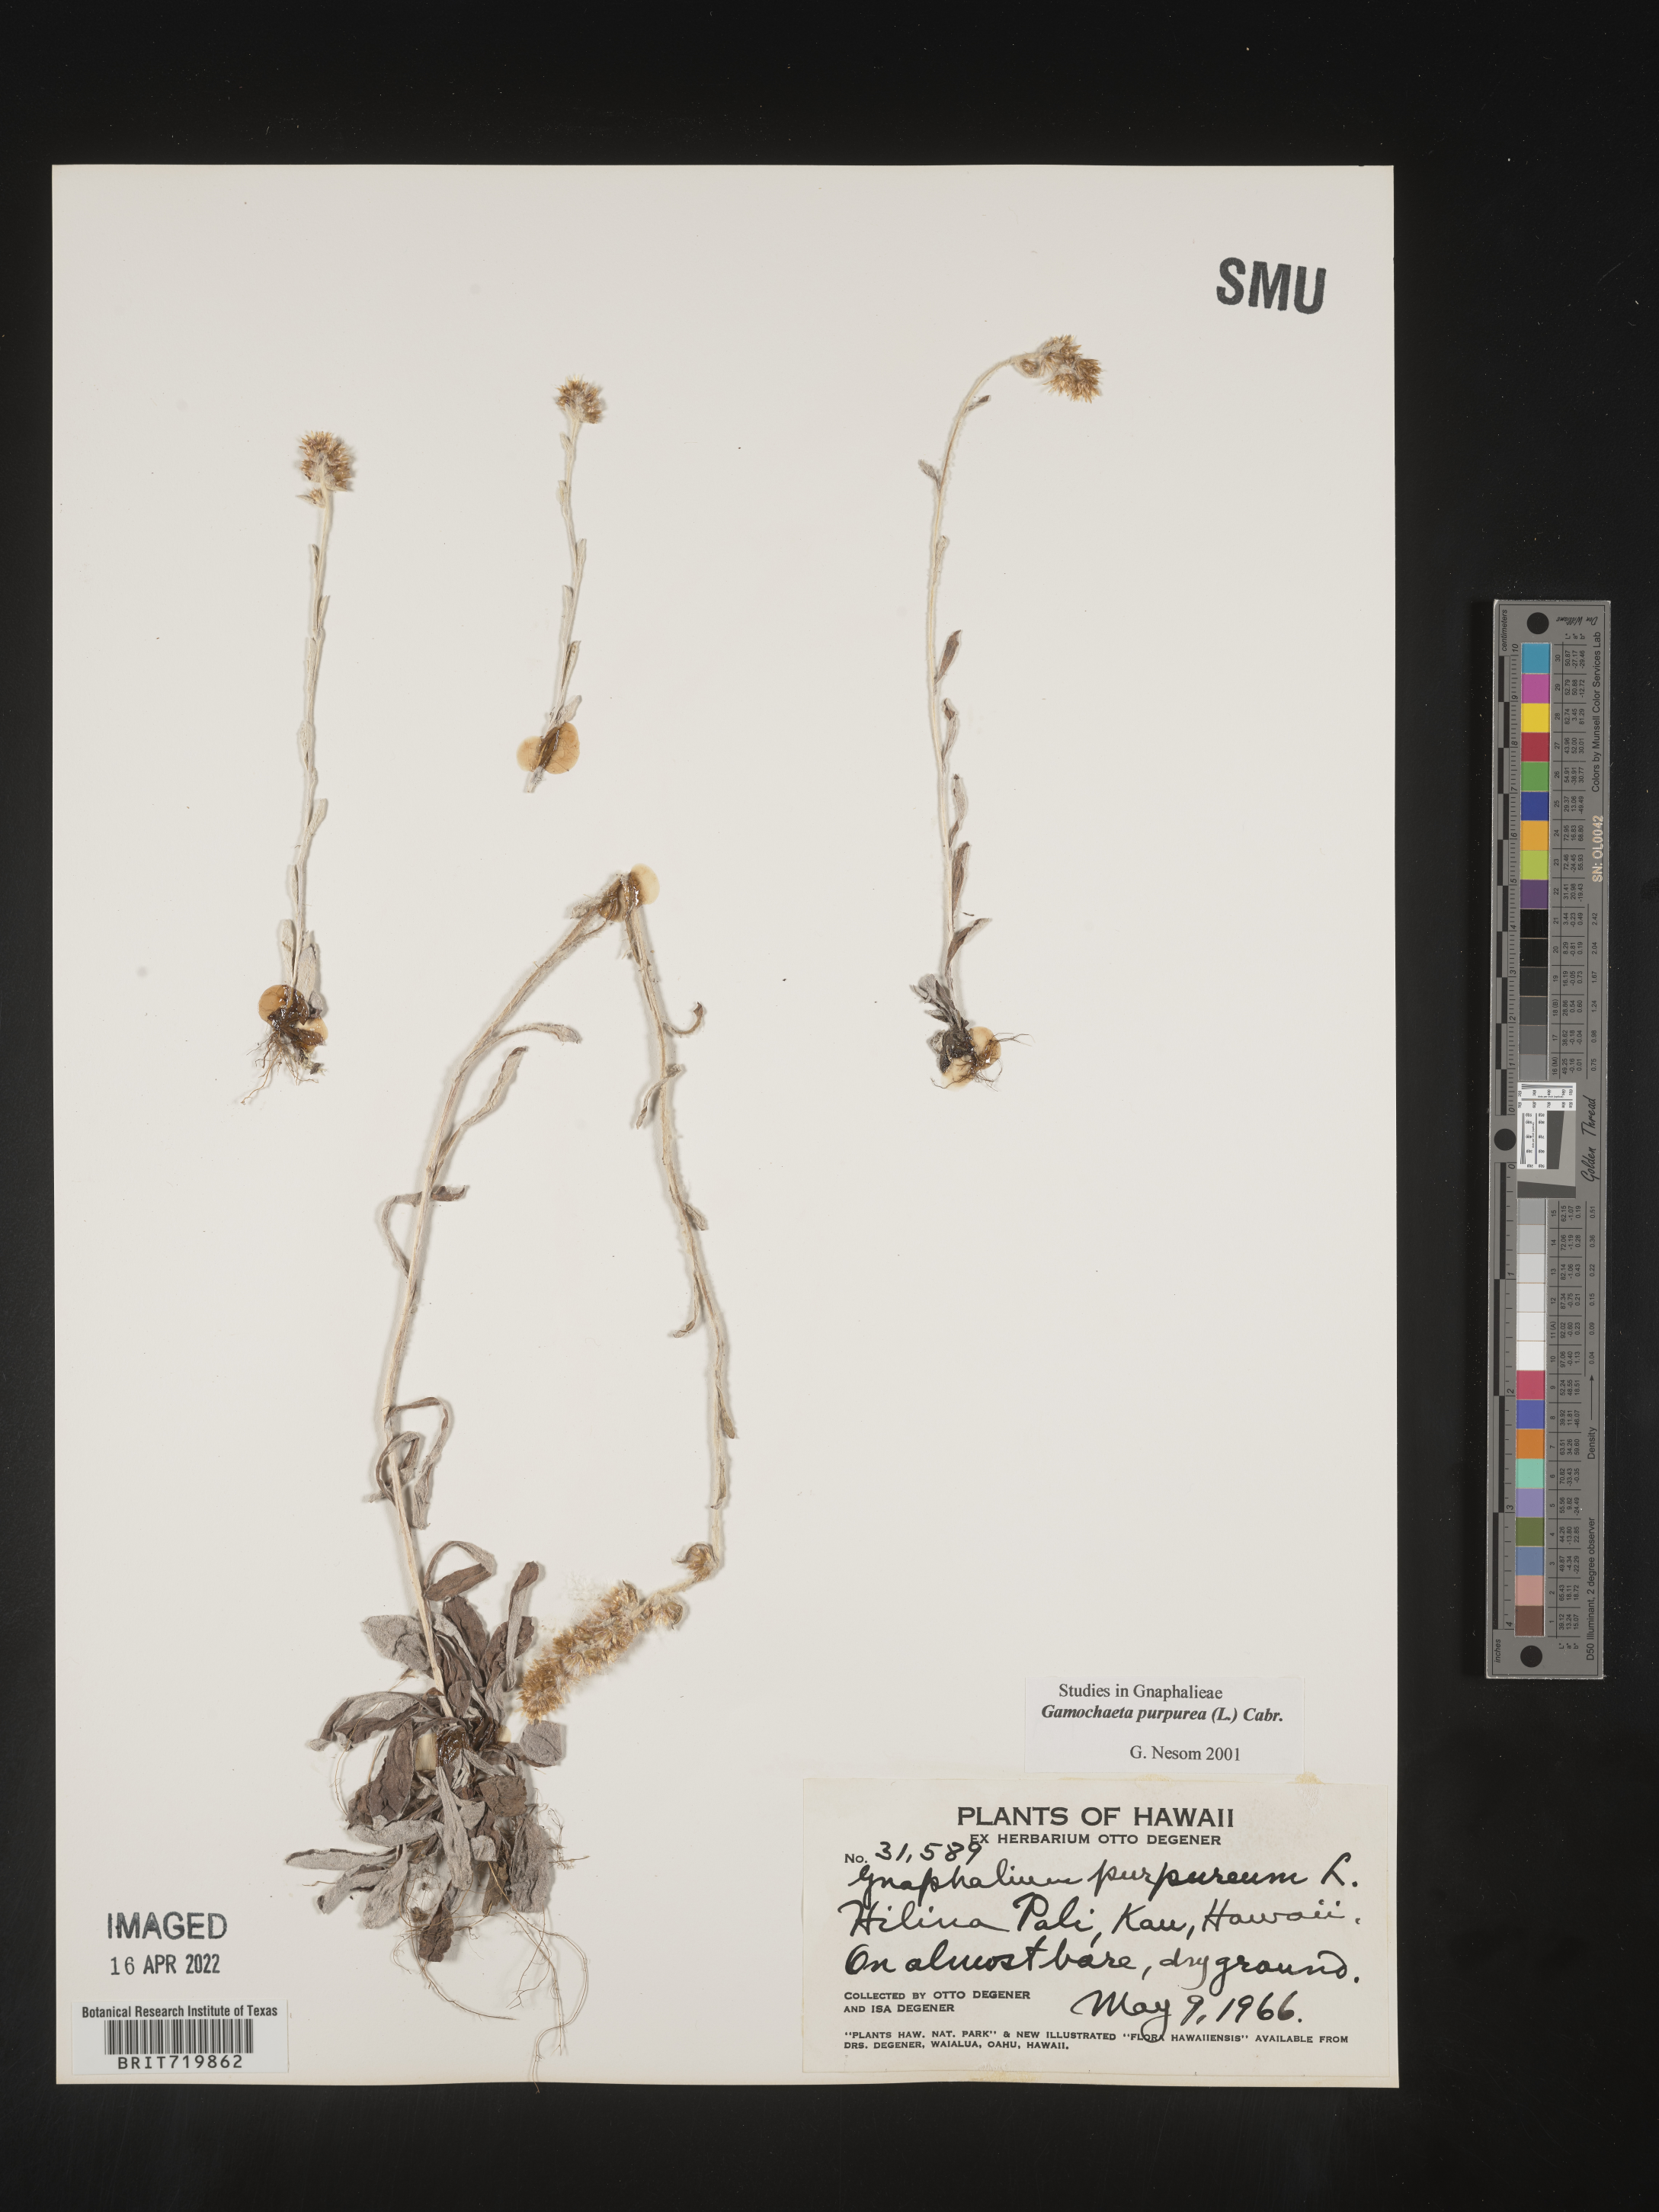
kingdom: Plantae
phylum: Tracheophyta
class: Magnoliopsida
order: Asterales
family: Asteraceae
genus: Gamochaeta
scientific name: Gamochaeta
